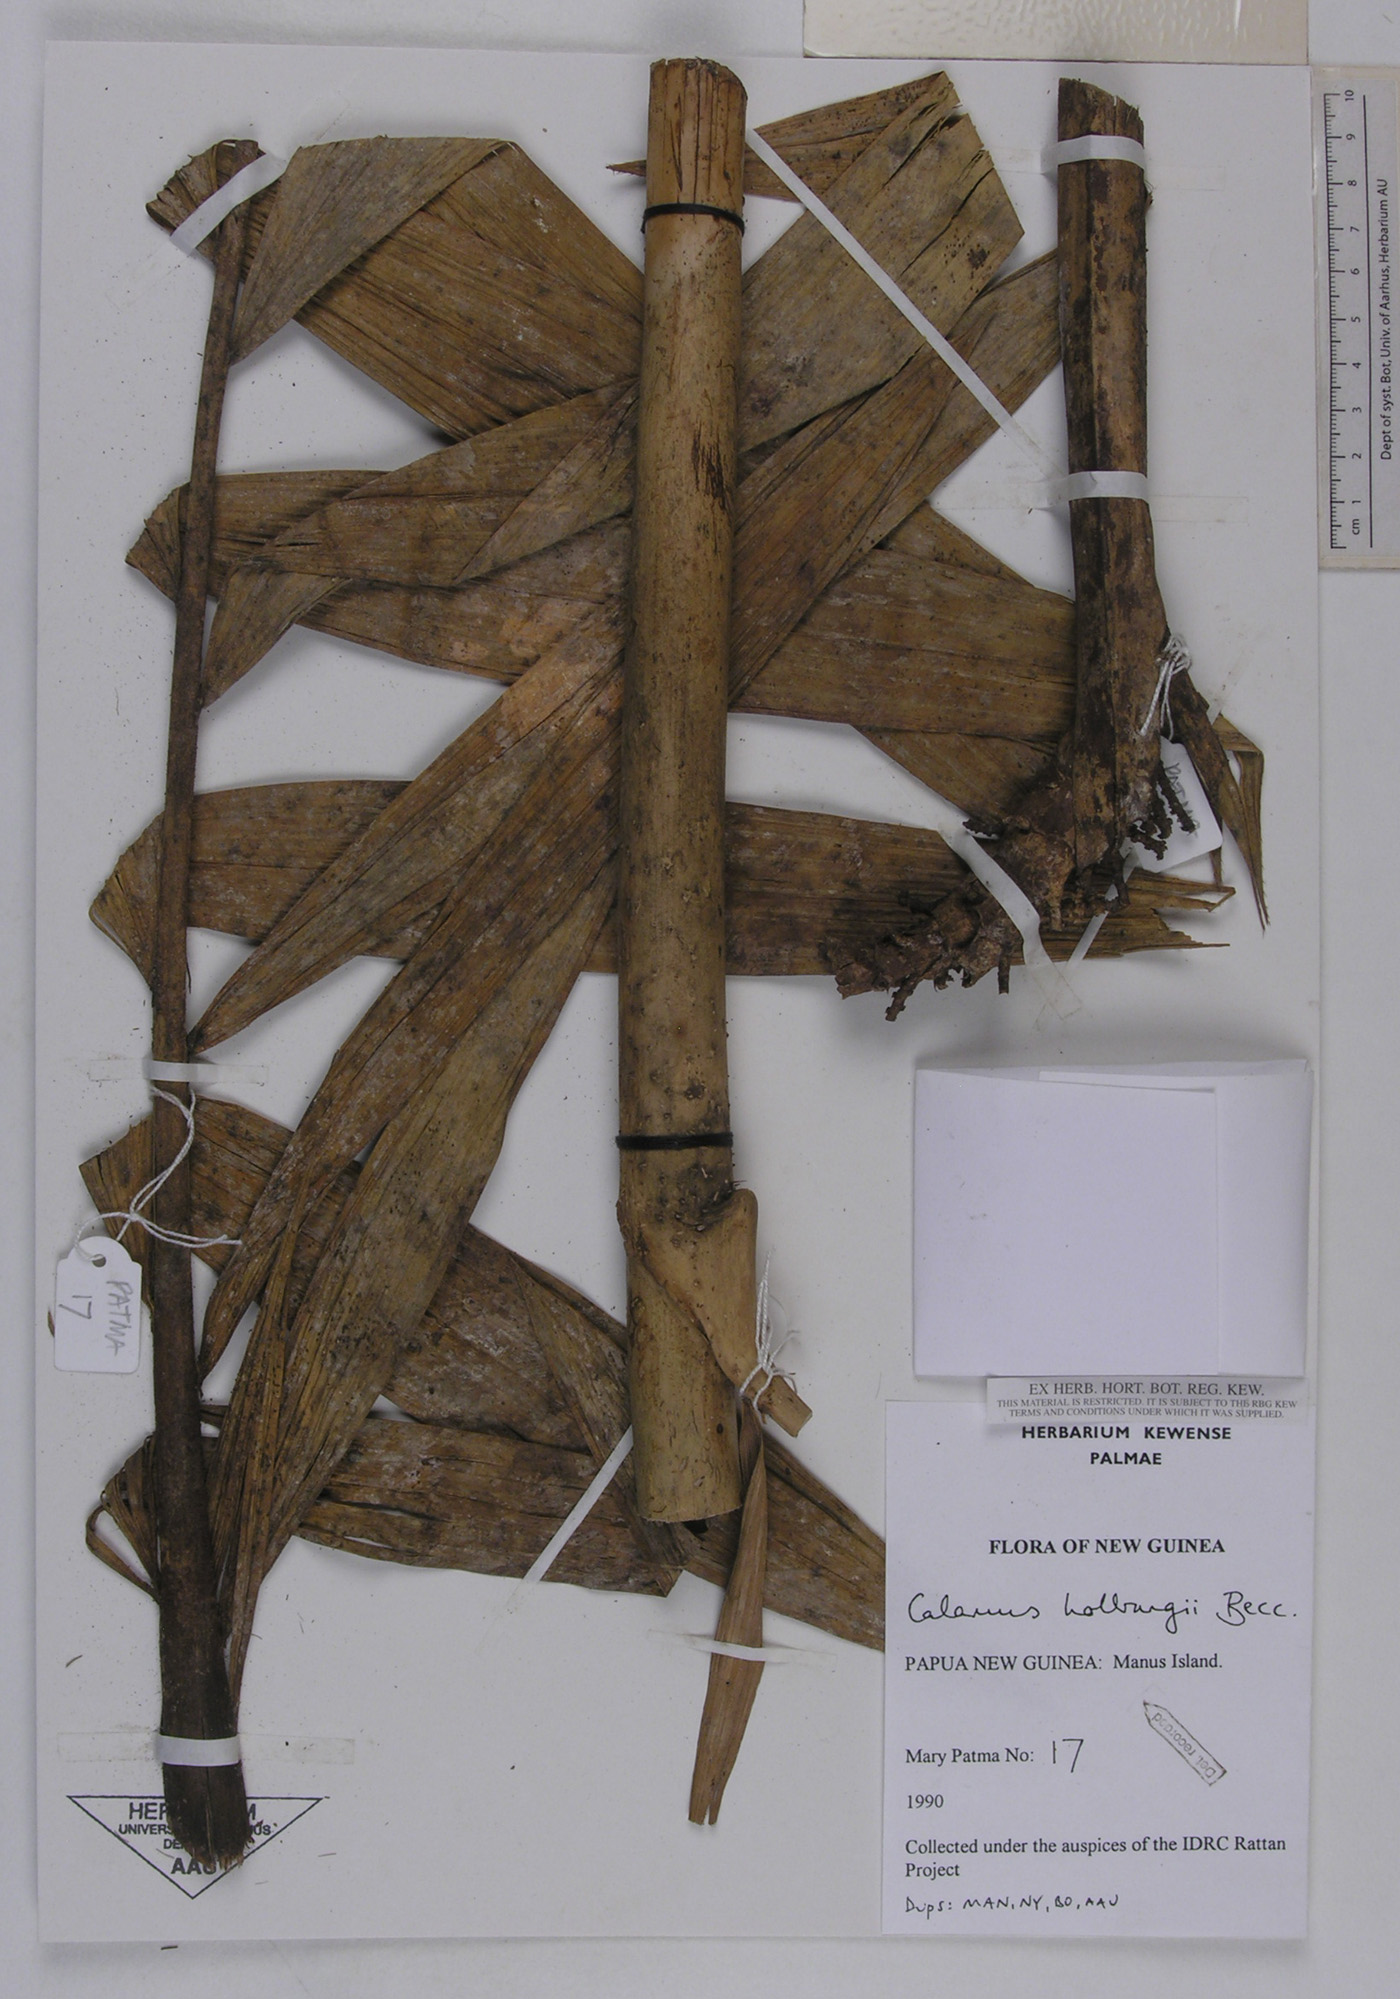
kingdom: Plantae
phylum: Tracheophyta
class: Liliopsida
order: Arecales
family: Arecaceae
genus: Calamus
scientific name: Calamus aruensis
